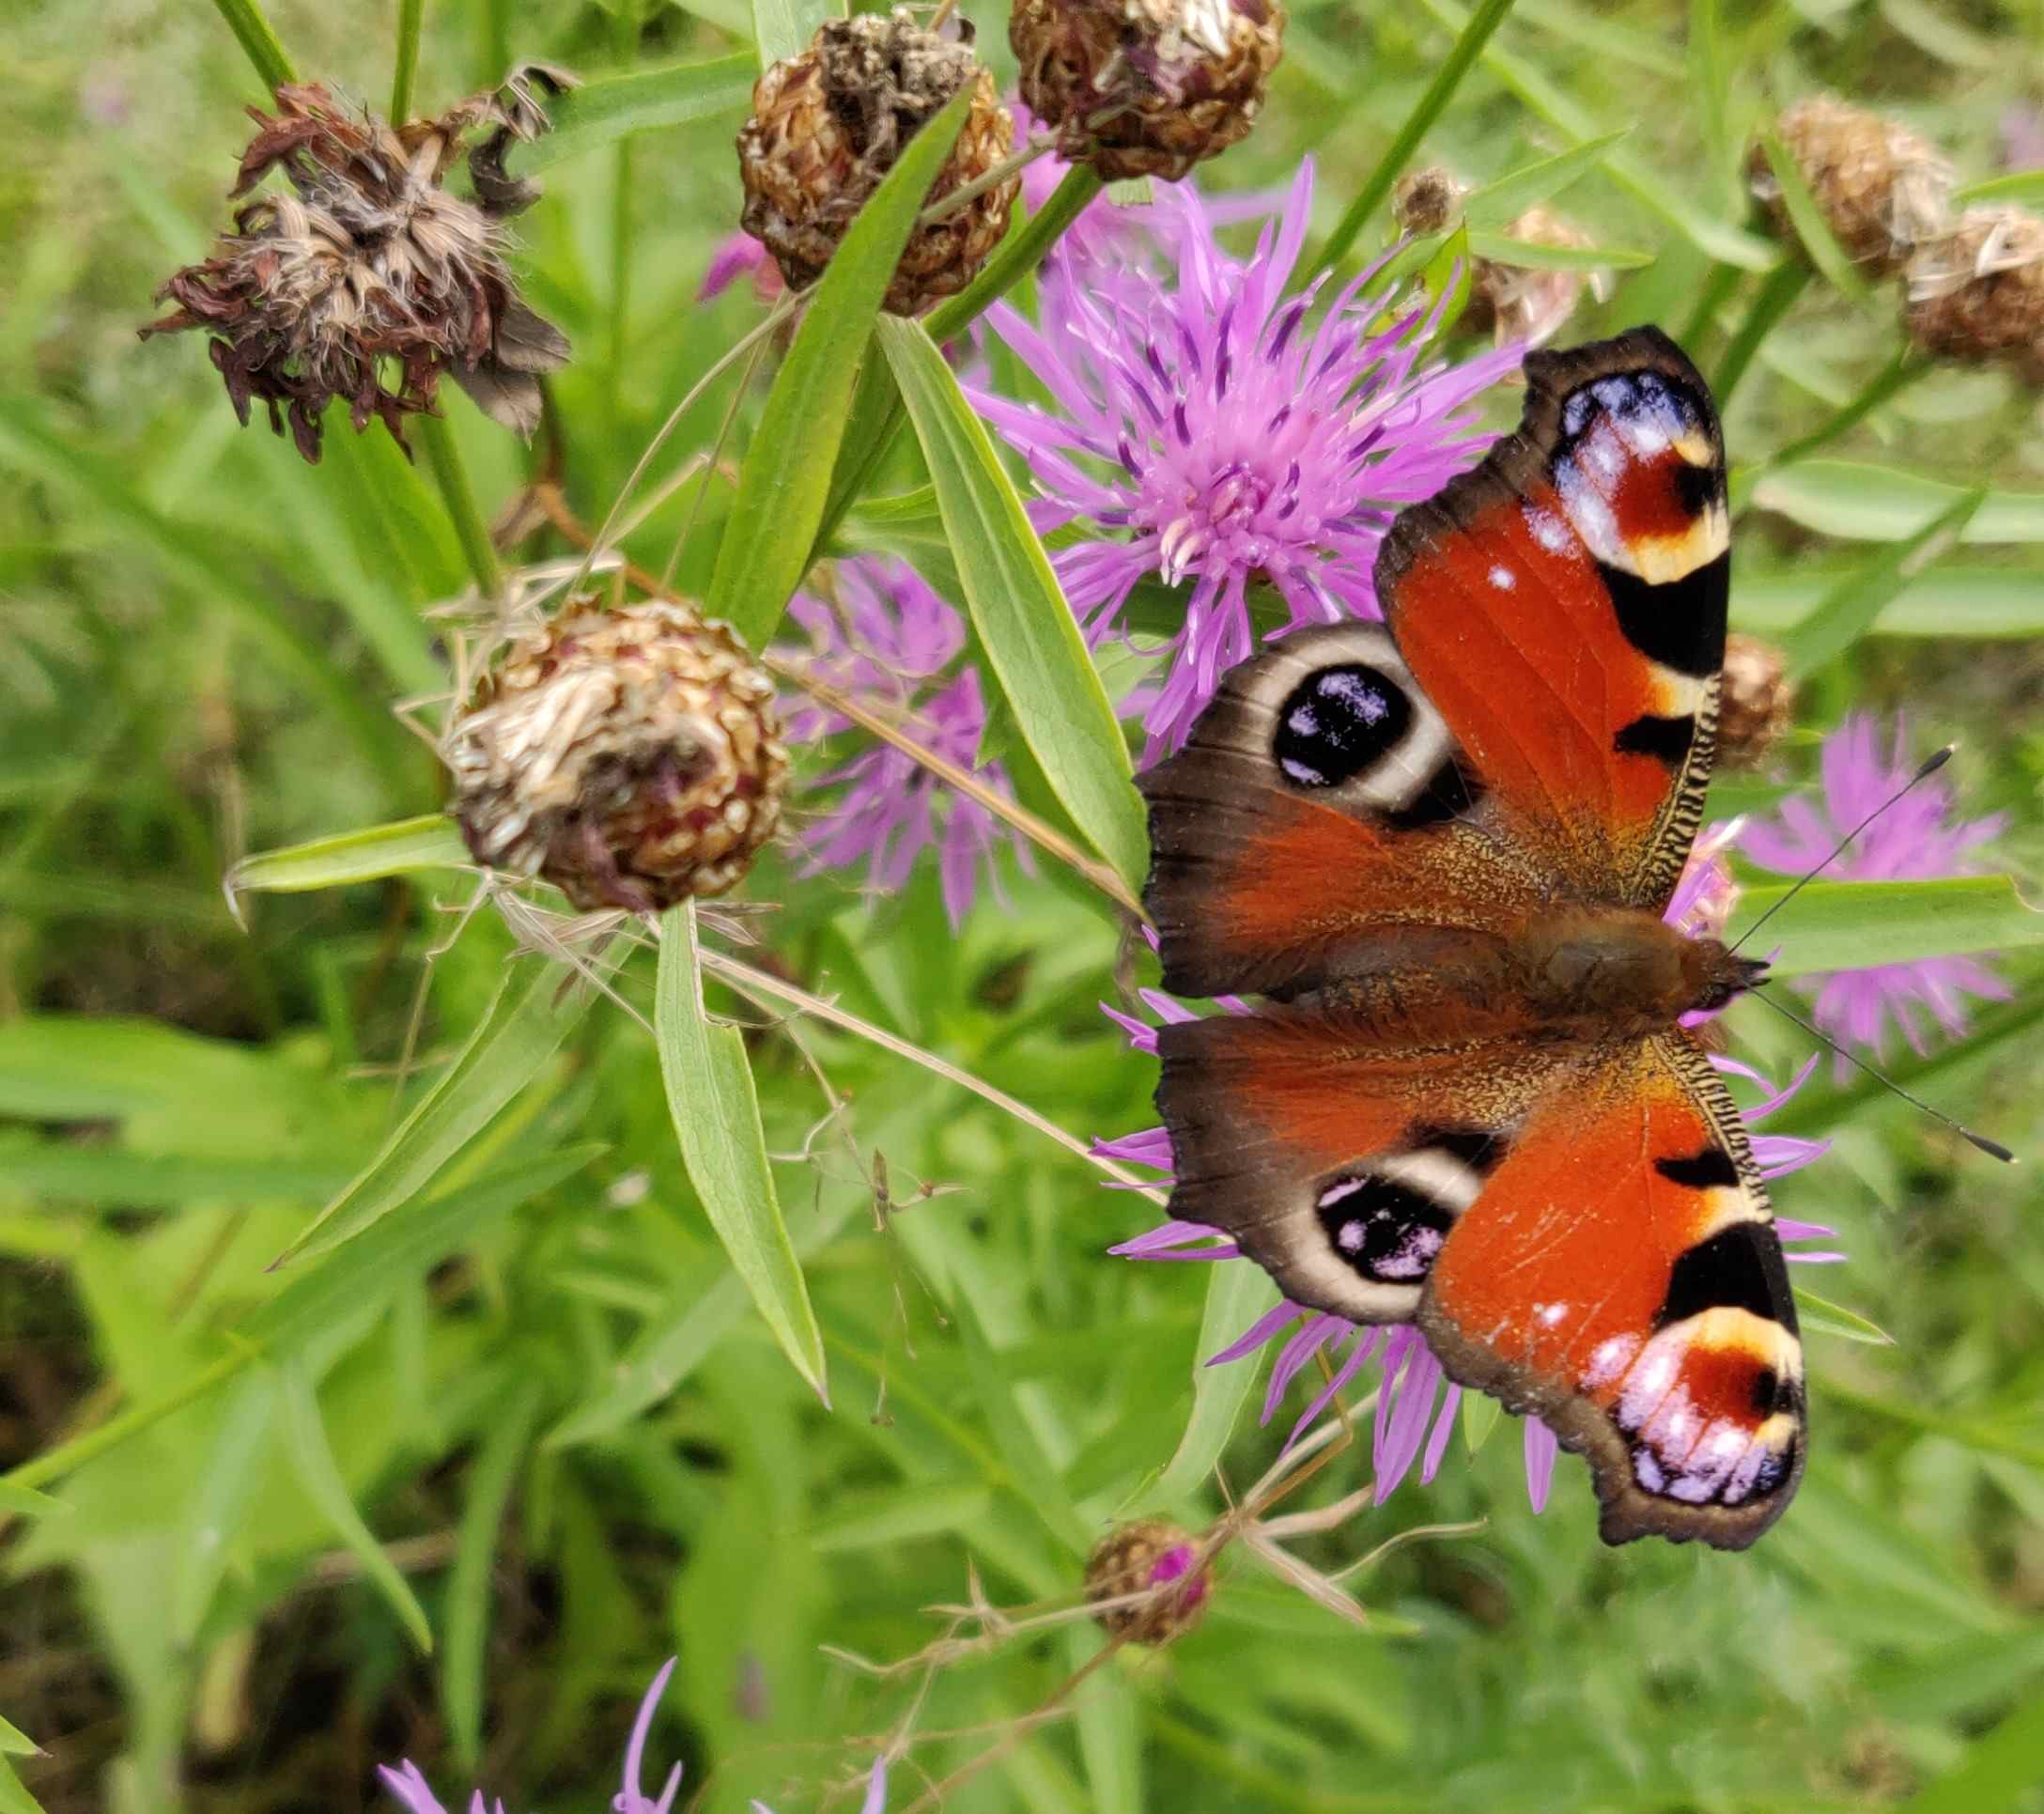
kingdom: Animalia
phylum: Arthropoda
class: Insecta
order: Lepidoptera
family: Nymphalidae
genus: Aglais
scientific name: Aglais io
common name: Peacock
